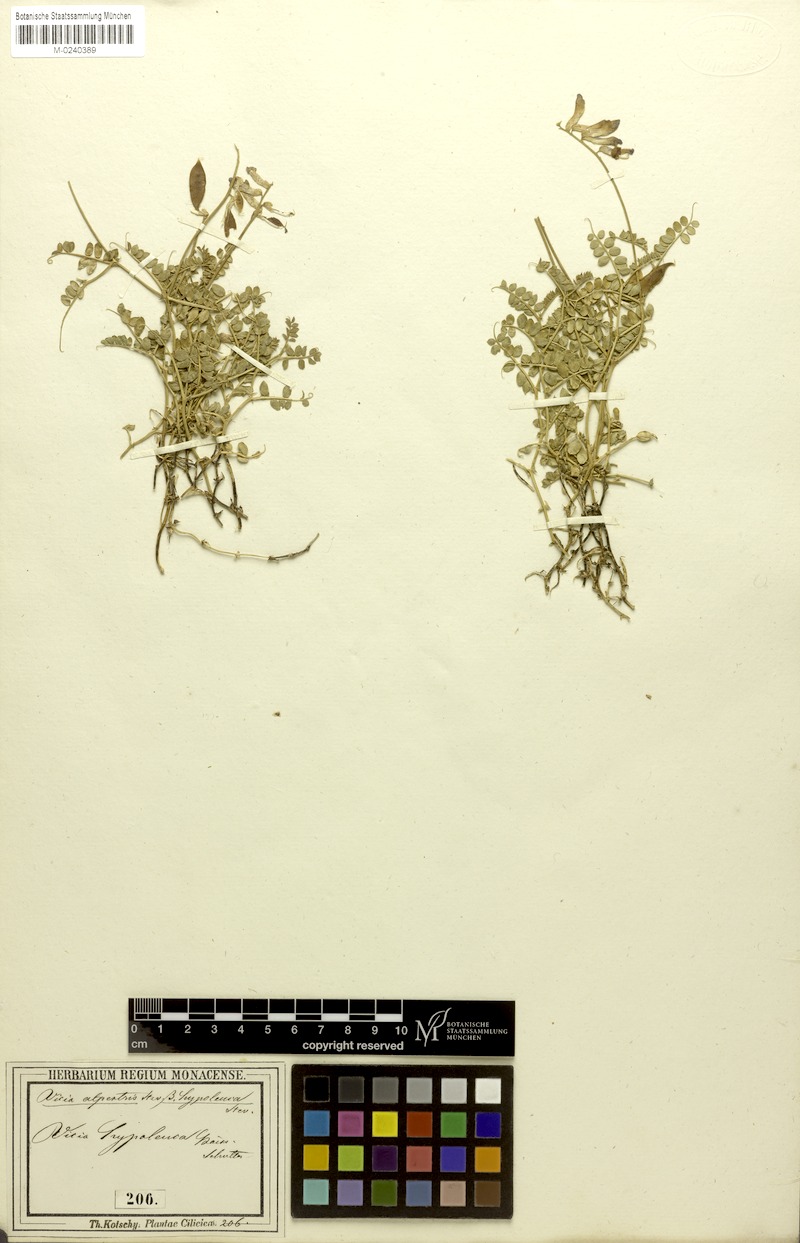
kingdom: Plantae
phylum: Tracheophyta
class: Magnoliopsida
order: Fabales
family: Fabaceae
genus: Vicia
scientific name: Vicia alpestris
